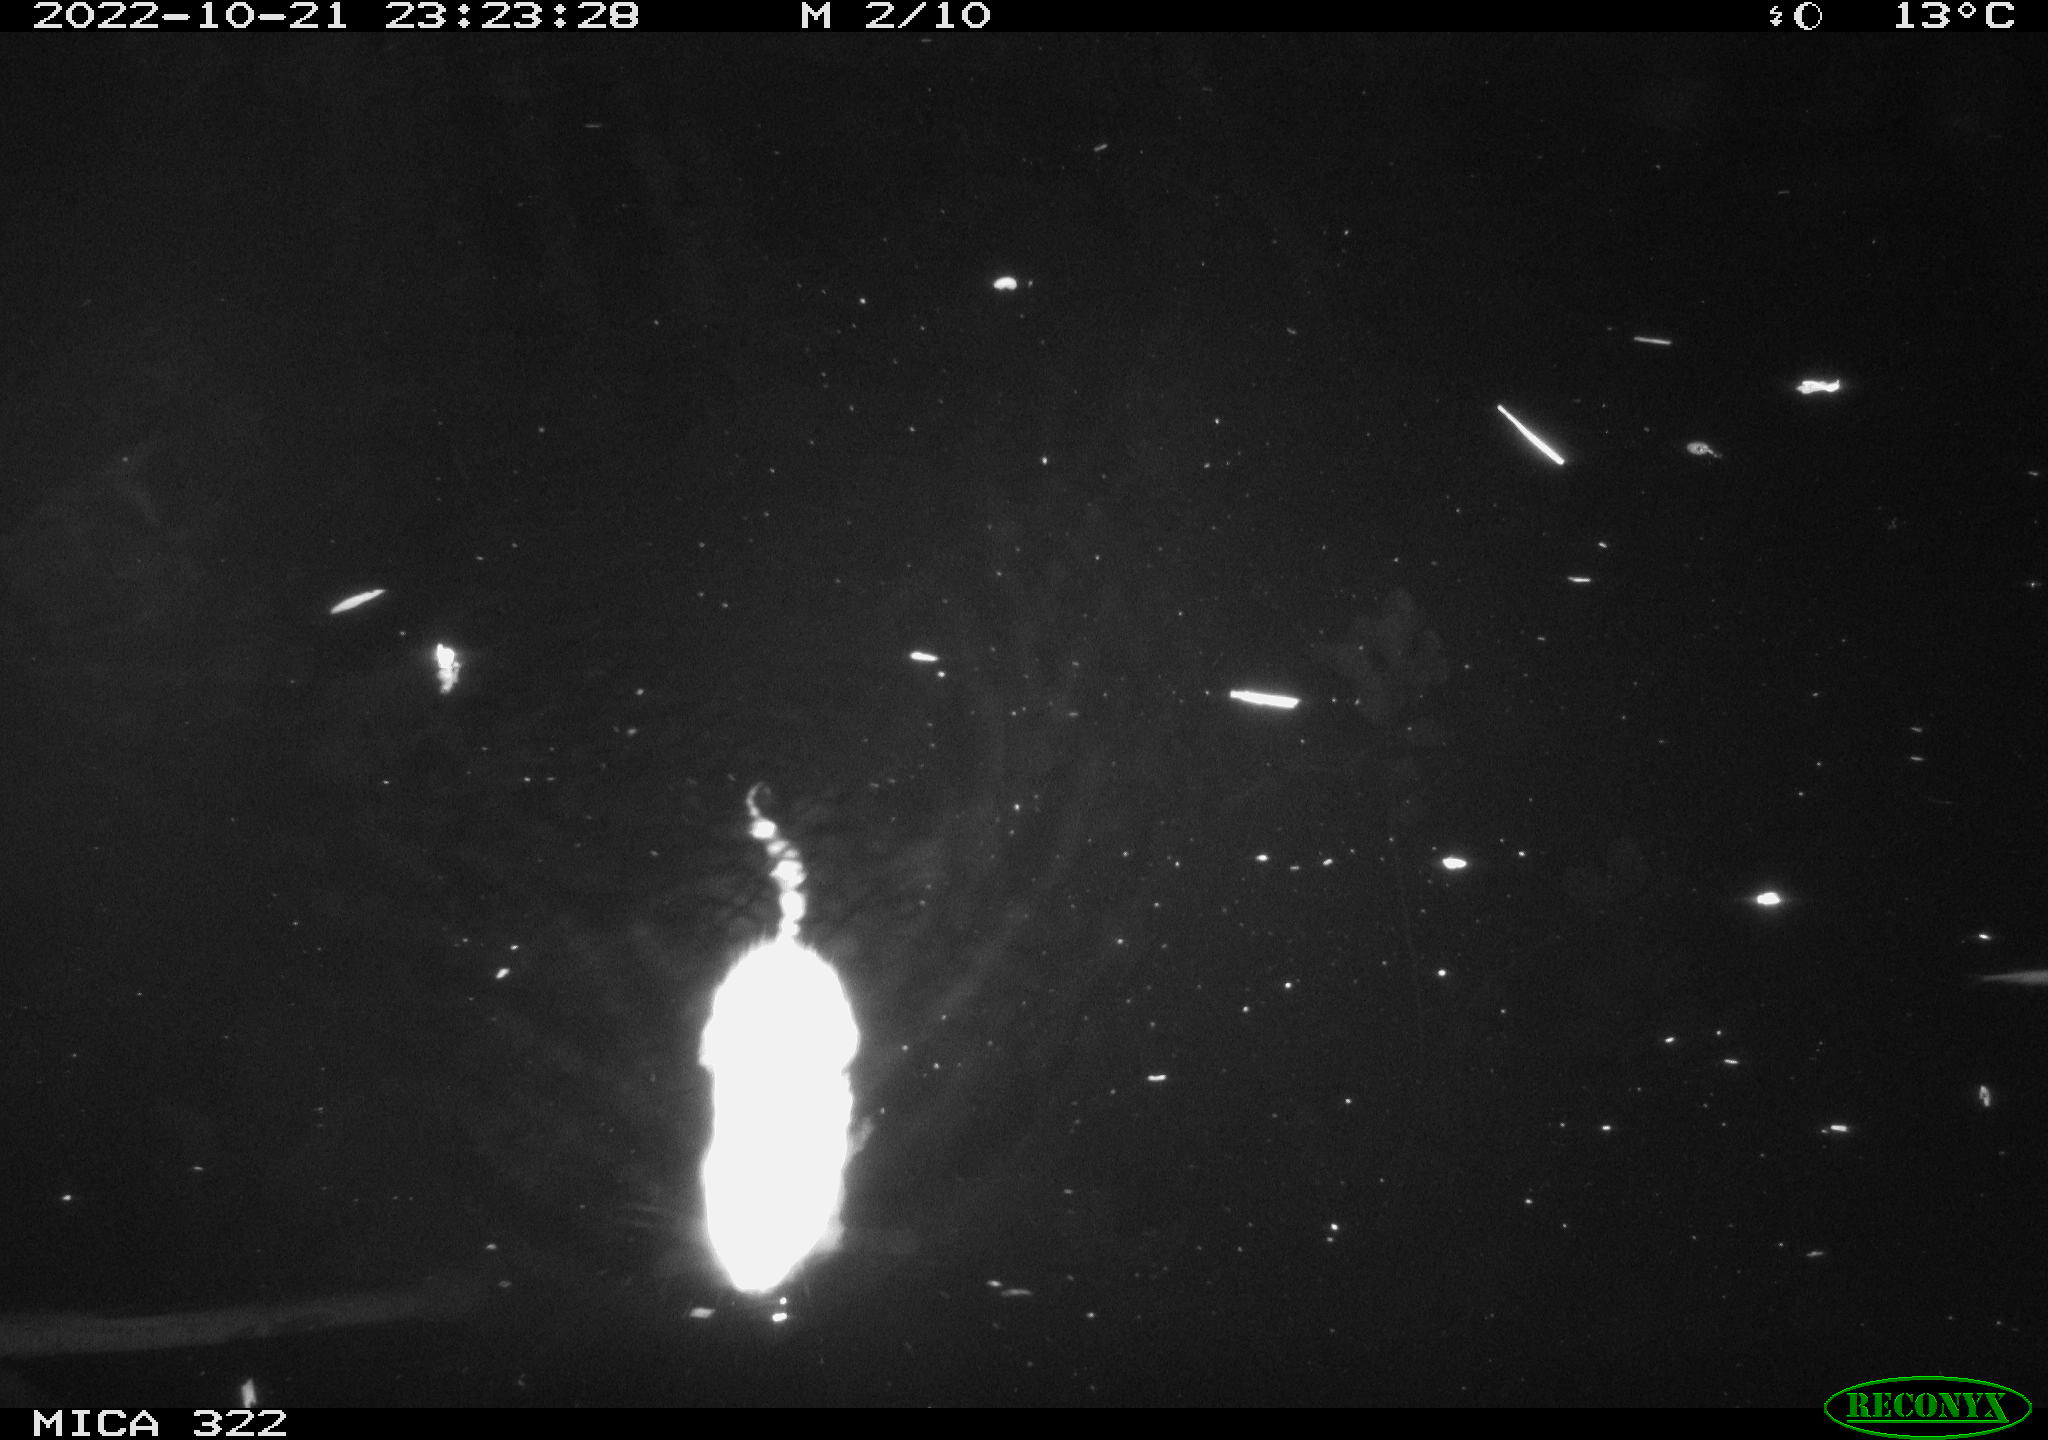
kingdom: Animalia
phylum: Chordata
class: Mammalia
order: Rodentia
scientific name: Rodentia
